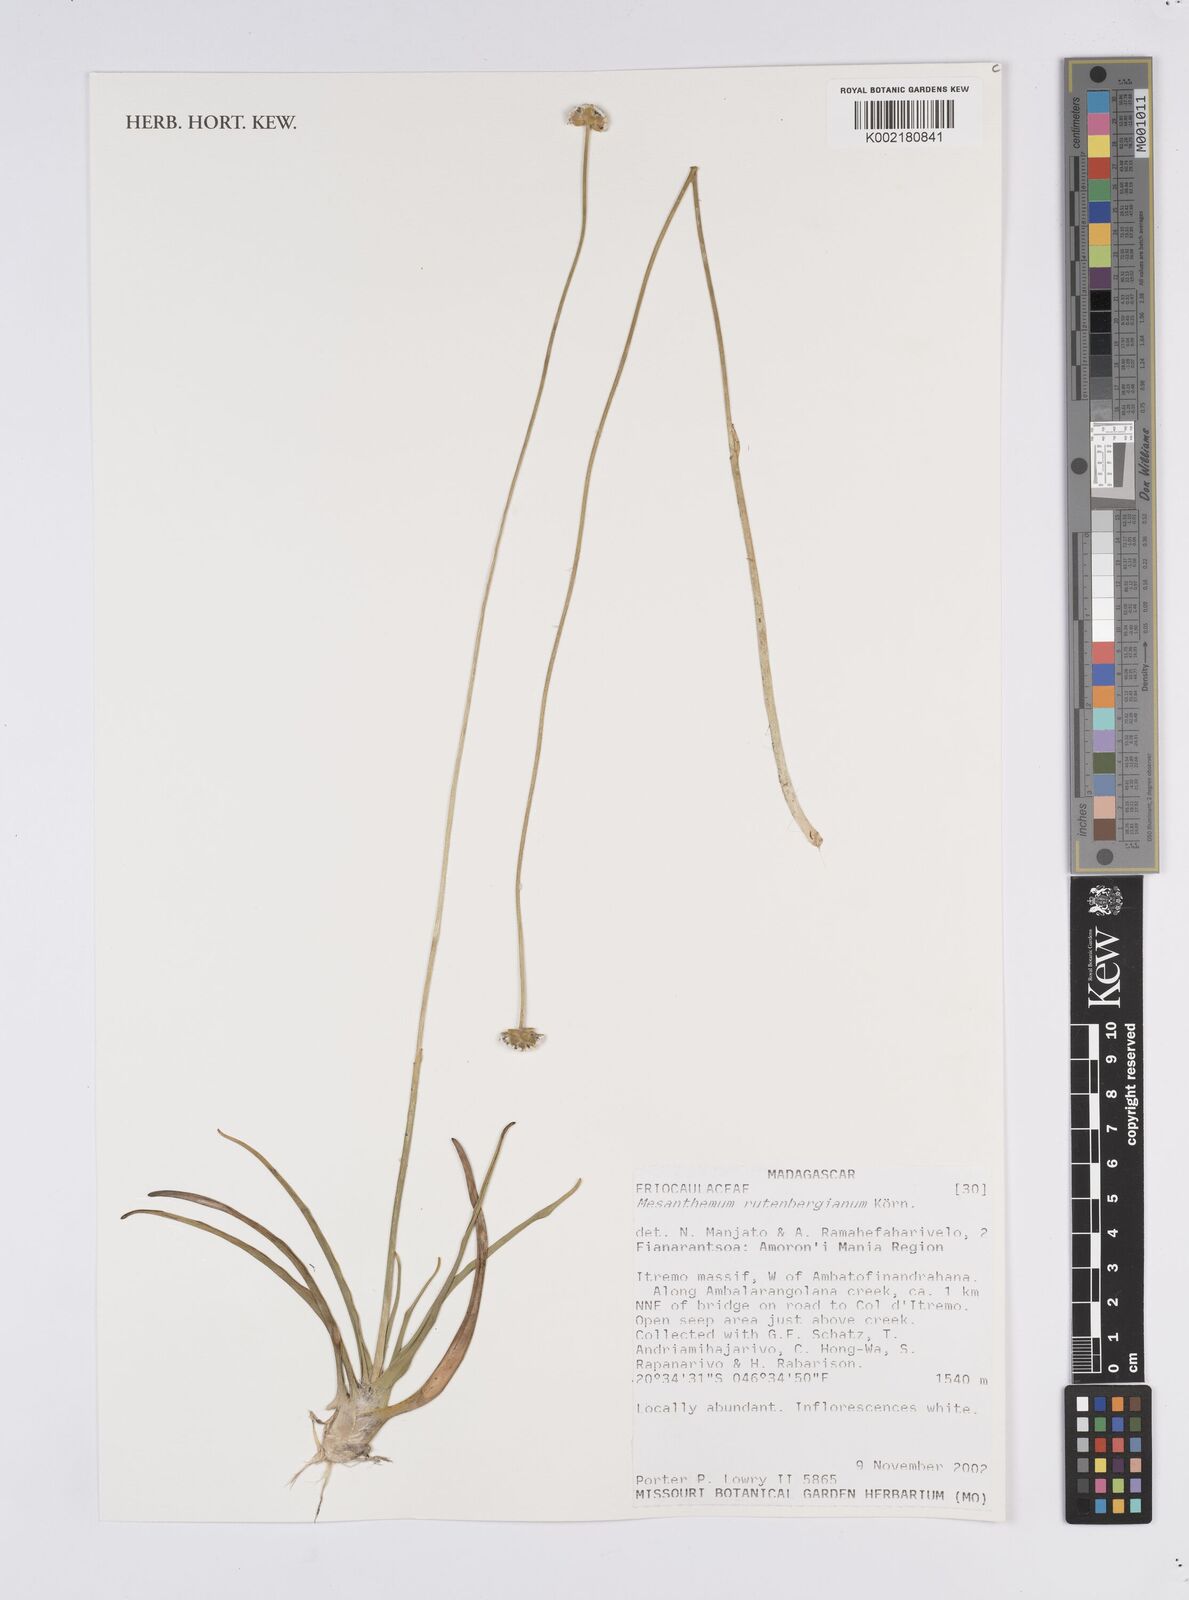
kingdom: Plantae
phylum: Tracheophyta
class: Liliopsida
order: Poales
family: Eriocaulaceae
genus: Mesanthemum
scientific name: Mesanthemum pubescens
